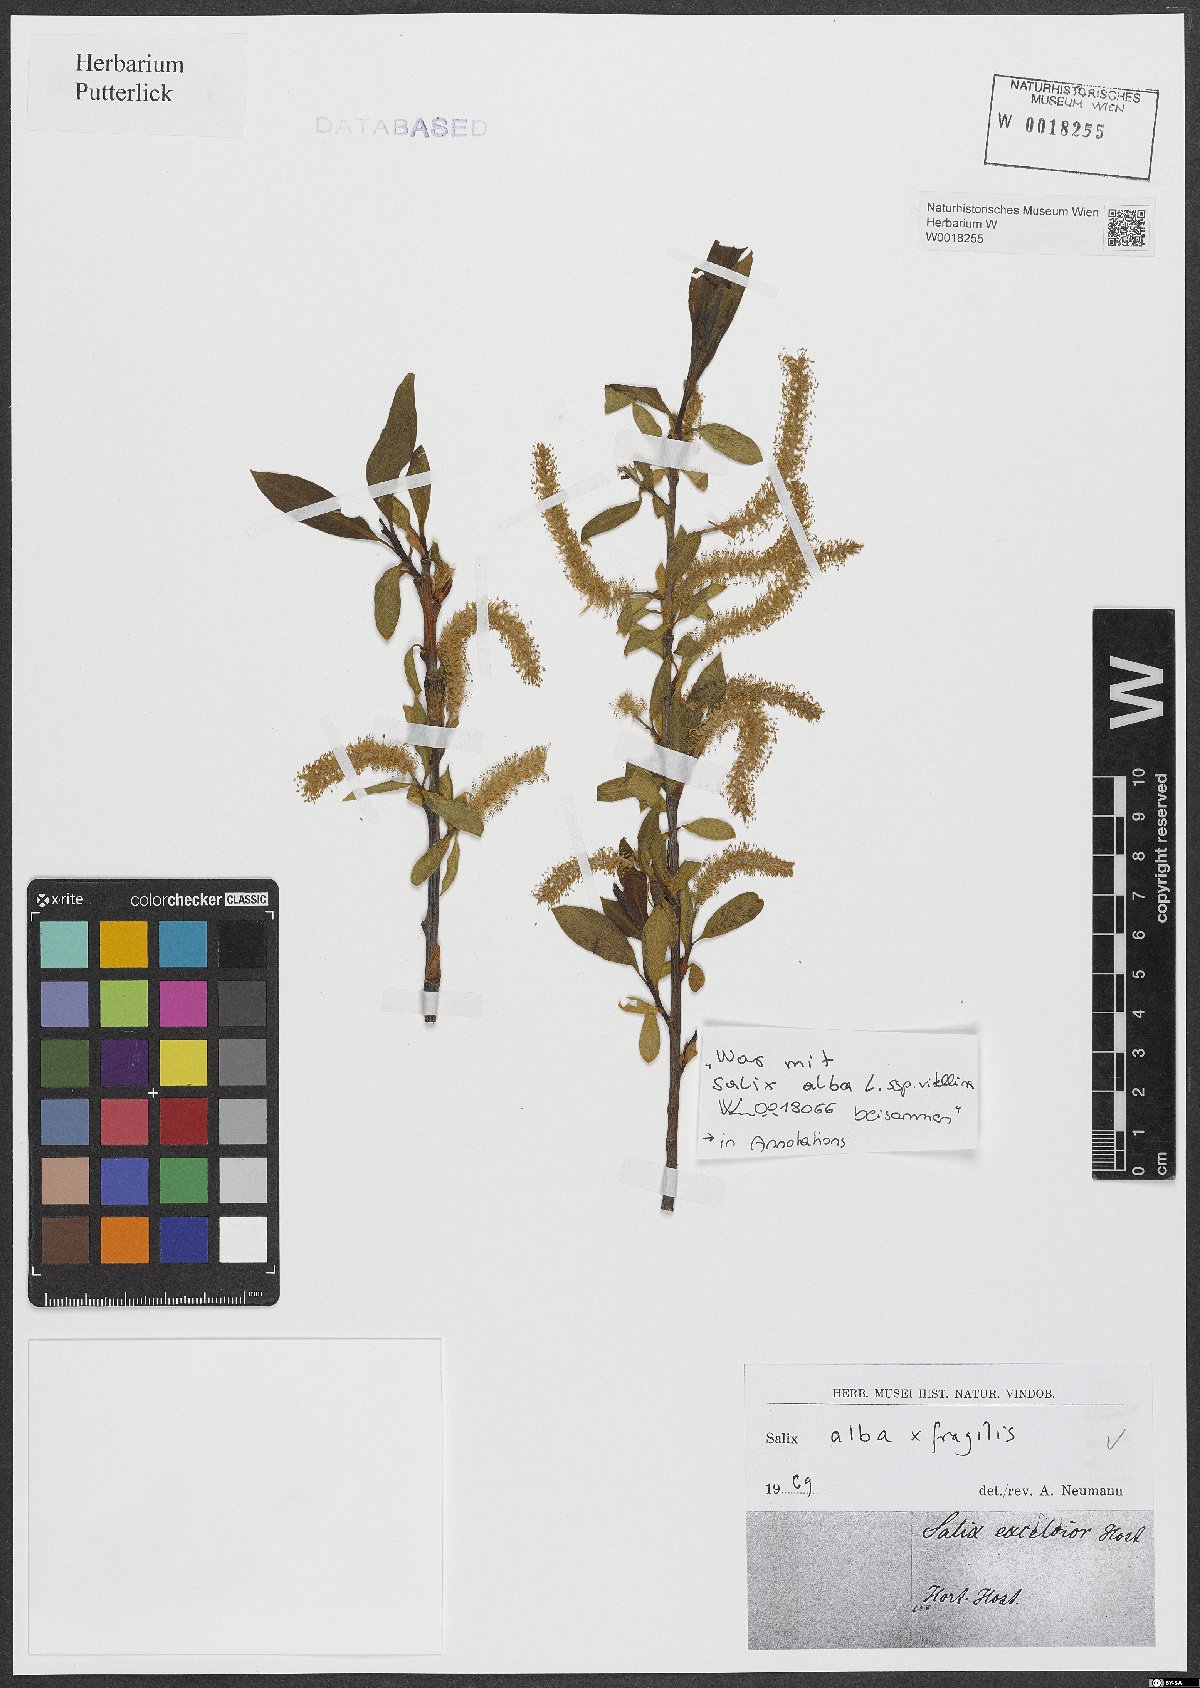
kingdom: Plantae
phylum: Tracheophyta
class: Magnoliopsida
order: Malpighiales
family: Salicaceae
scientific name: Salicaceae
